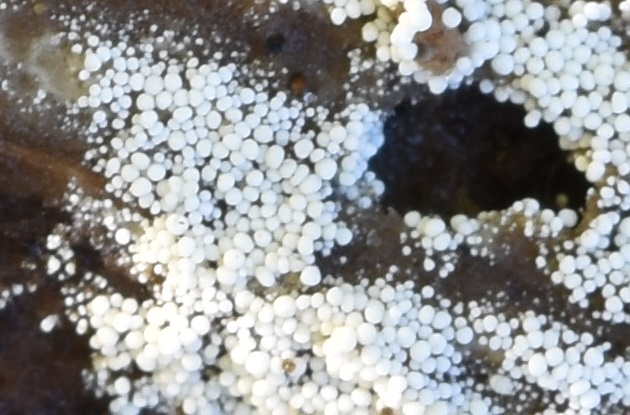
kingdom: Fungi
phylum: Basidiomycota
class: Agaricomycetes
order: Polyporales
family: Meruliaceae
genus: Bulbillomyces
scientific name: Bulbillomyces farinosus
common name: æg-kalkskind
